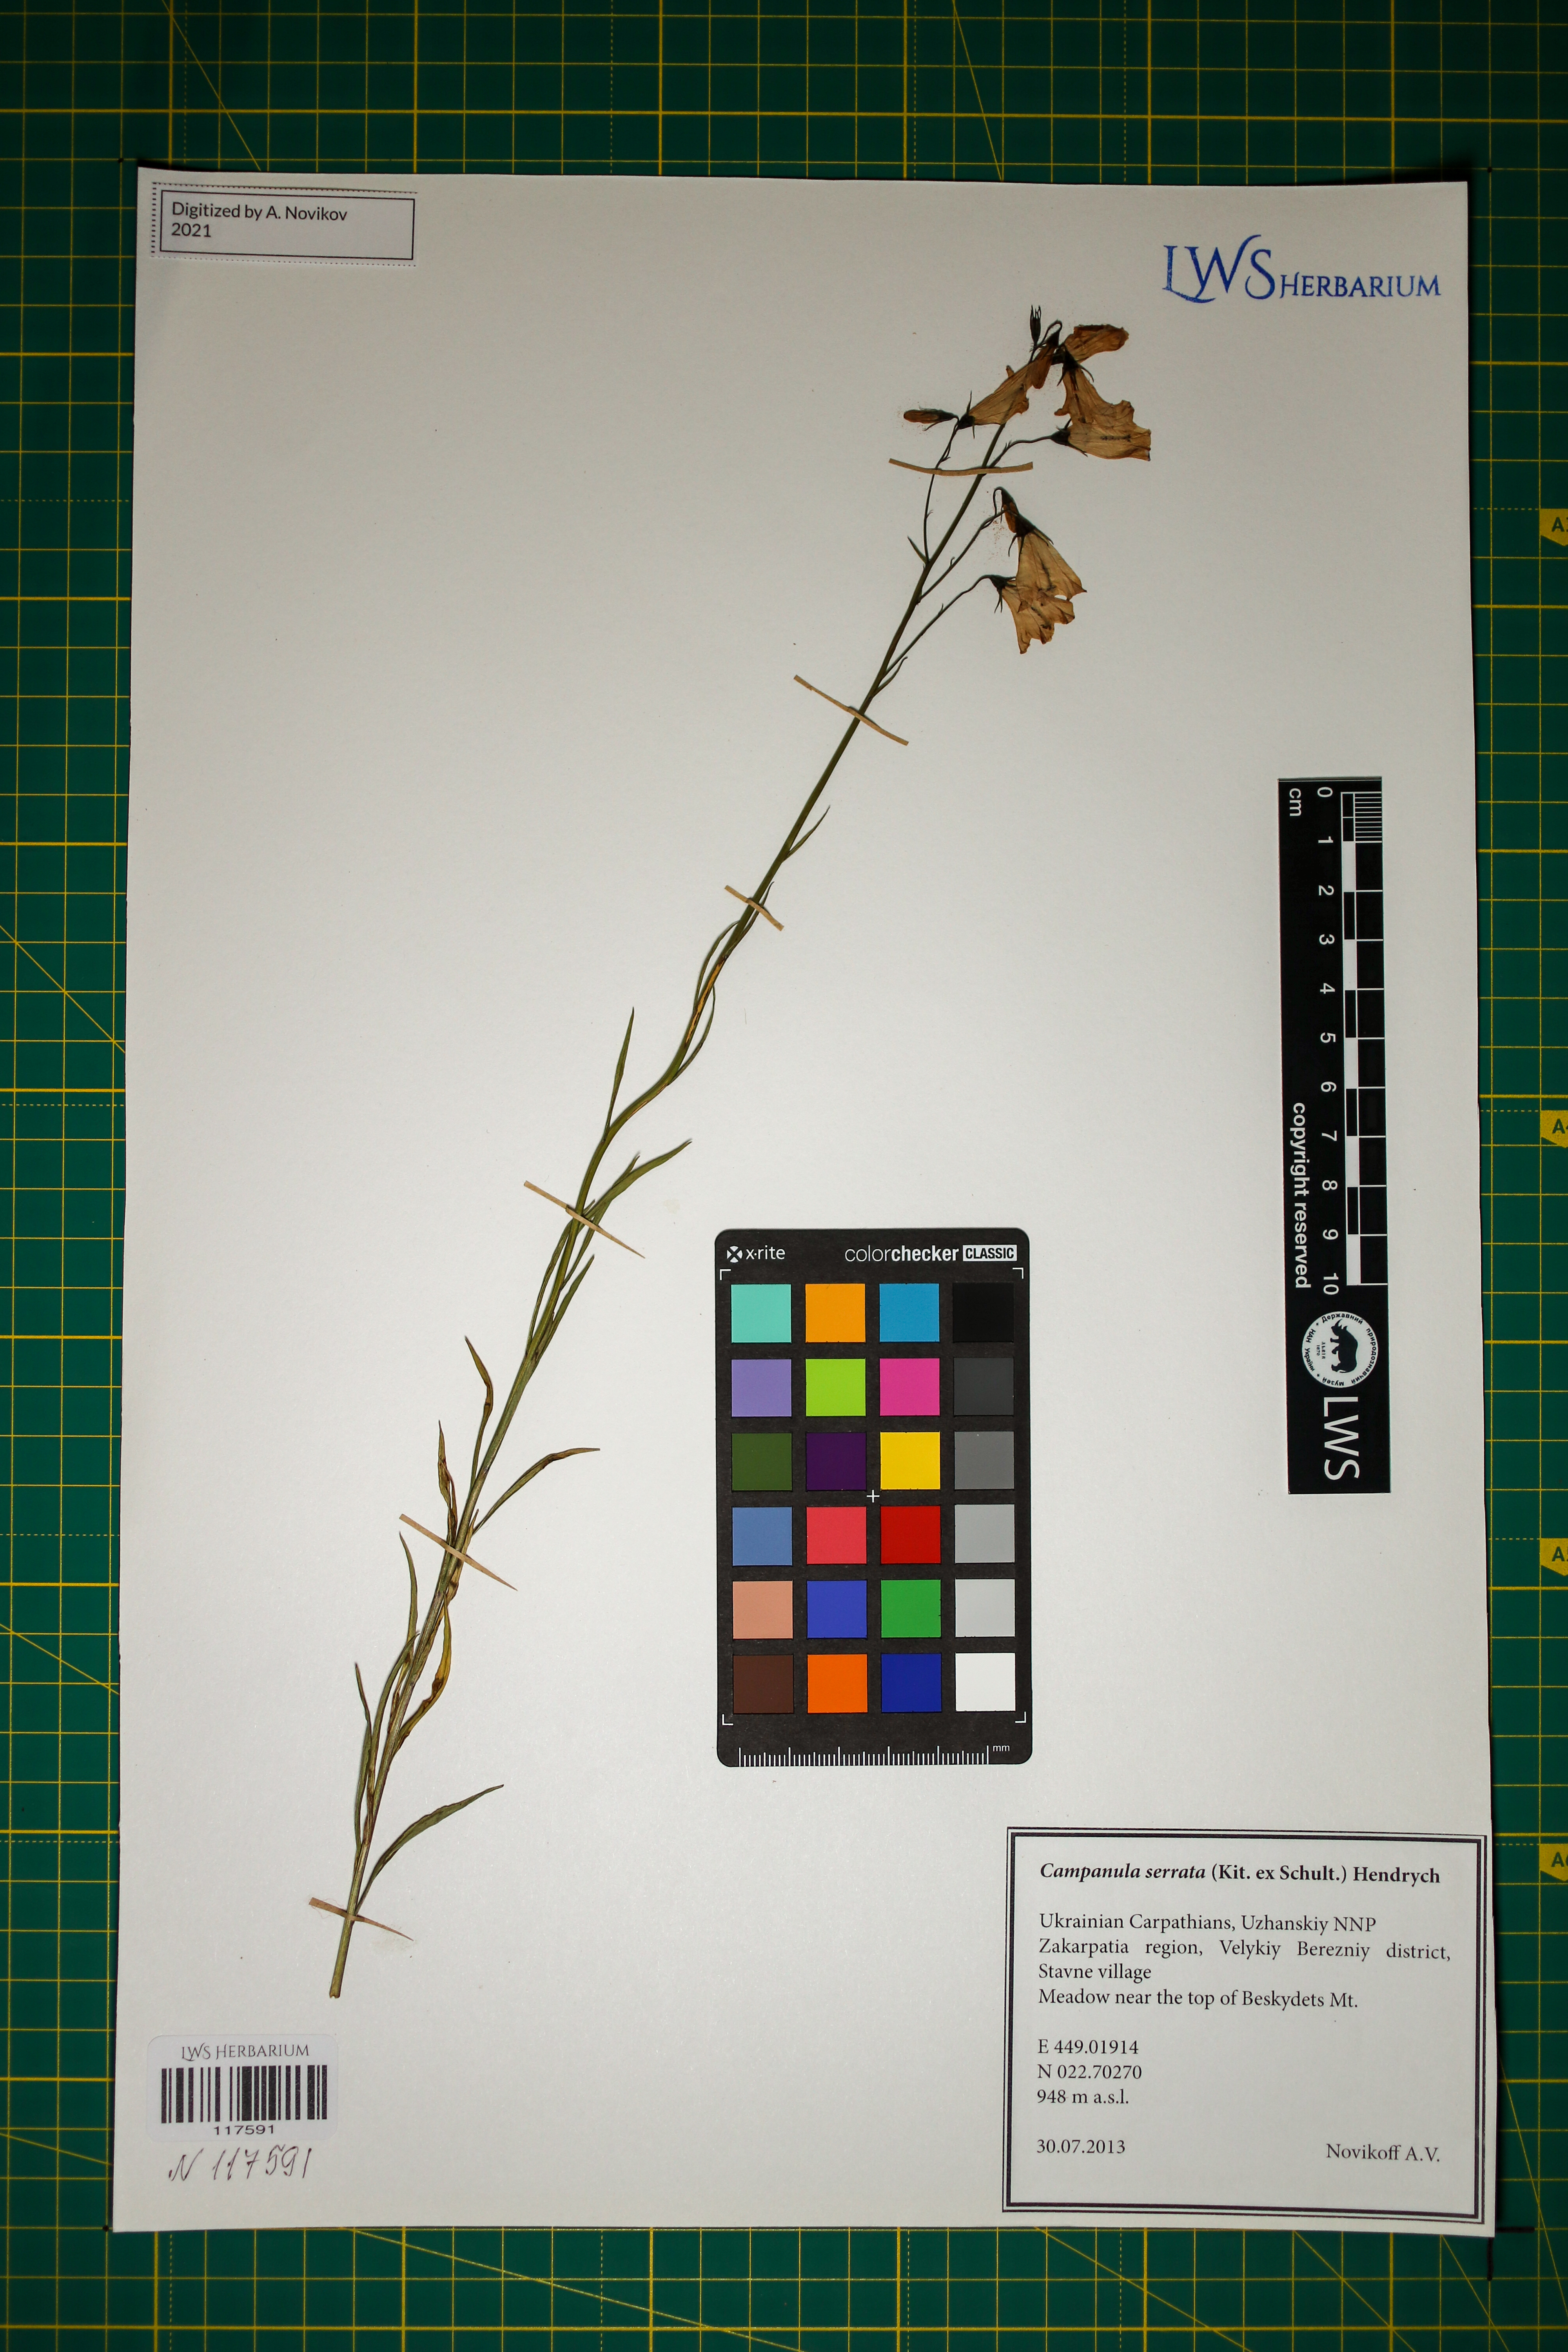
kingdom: Plantae
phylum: Tracheophyta
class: Magnoliopsida
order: Asterales
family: Campanulaceae
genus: Campanula
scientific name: Campanula serrata
